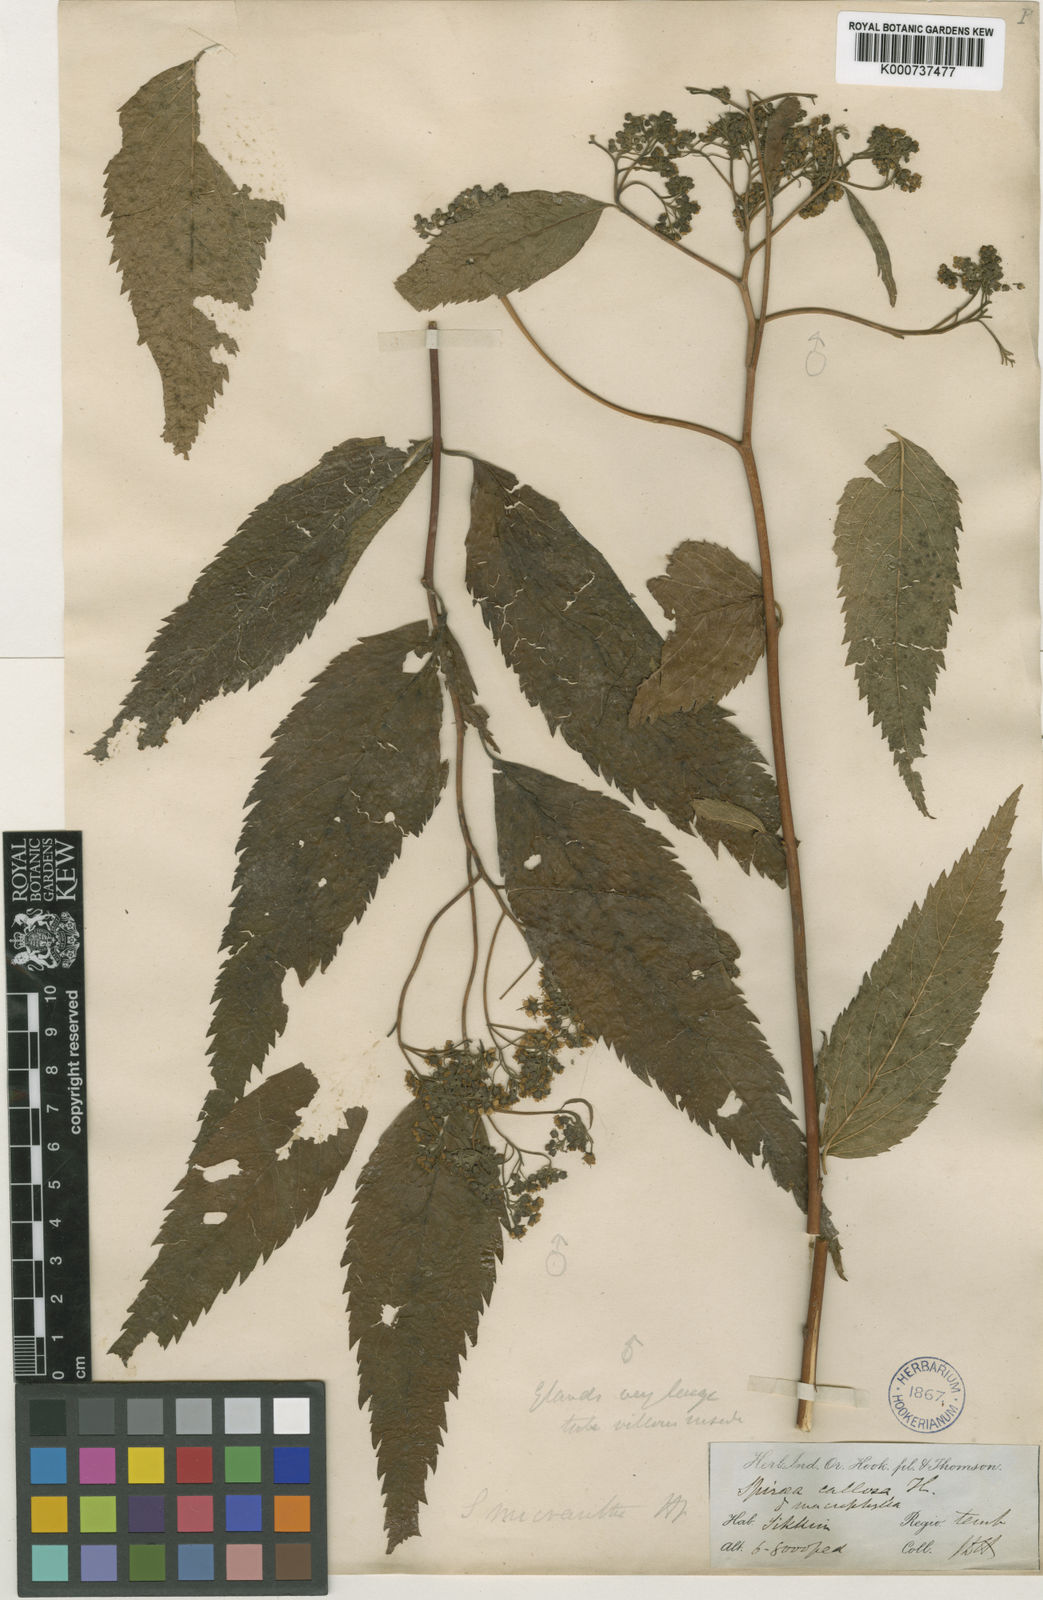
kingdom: Plantae
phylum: Tracheophyta
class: Magnoliopsida
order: Rosales
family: Rosaceae
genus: Spiraea
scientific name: Spiraea japonica
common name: Japanese spiraea
